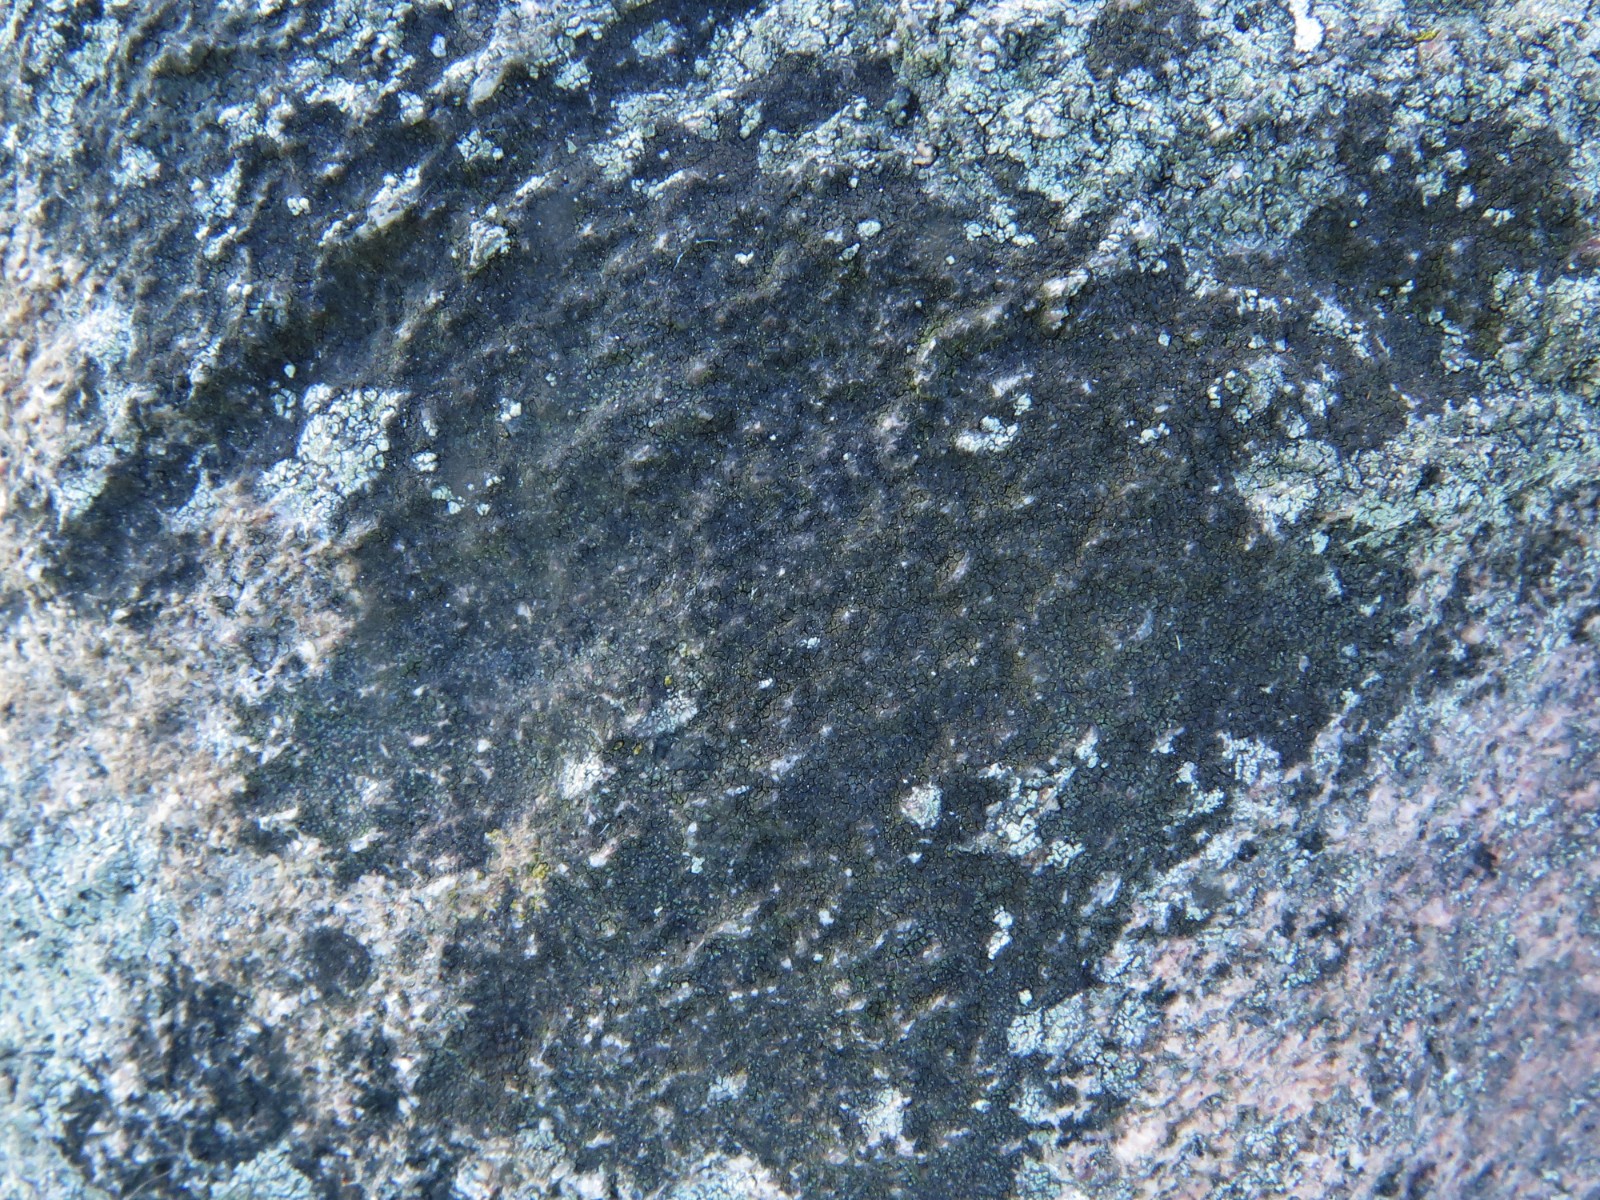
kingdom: Fungi
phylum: Ascomycota
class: Eurotiomycetes
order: Verrucariales
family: Verrucariaceae
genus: Verrucaria
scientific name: Verrucaria nigrescens
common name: sortbrun vortelav
